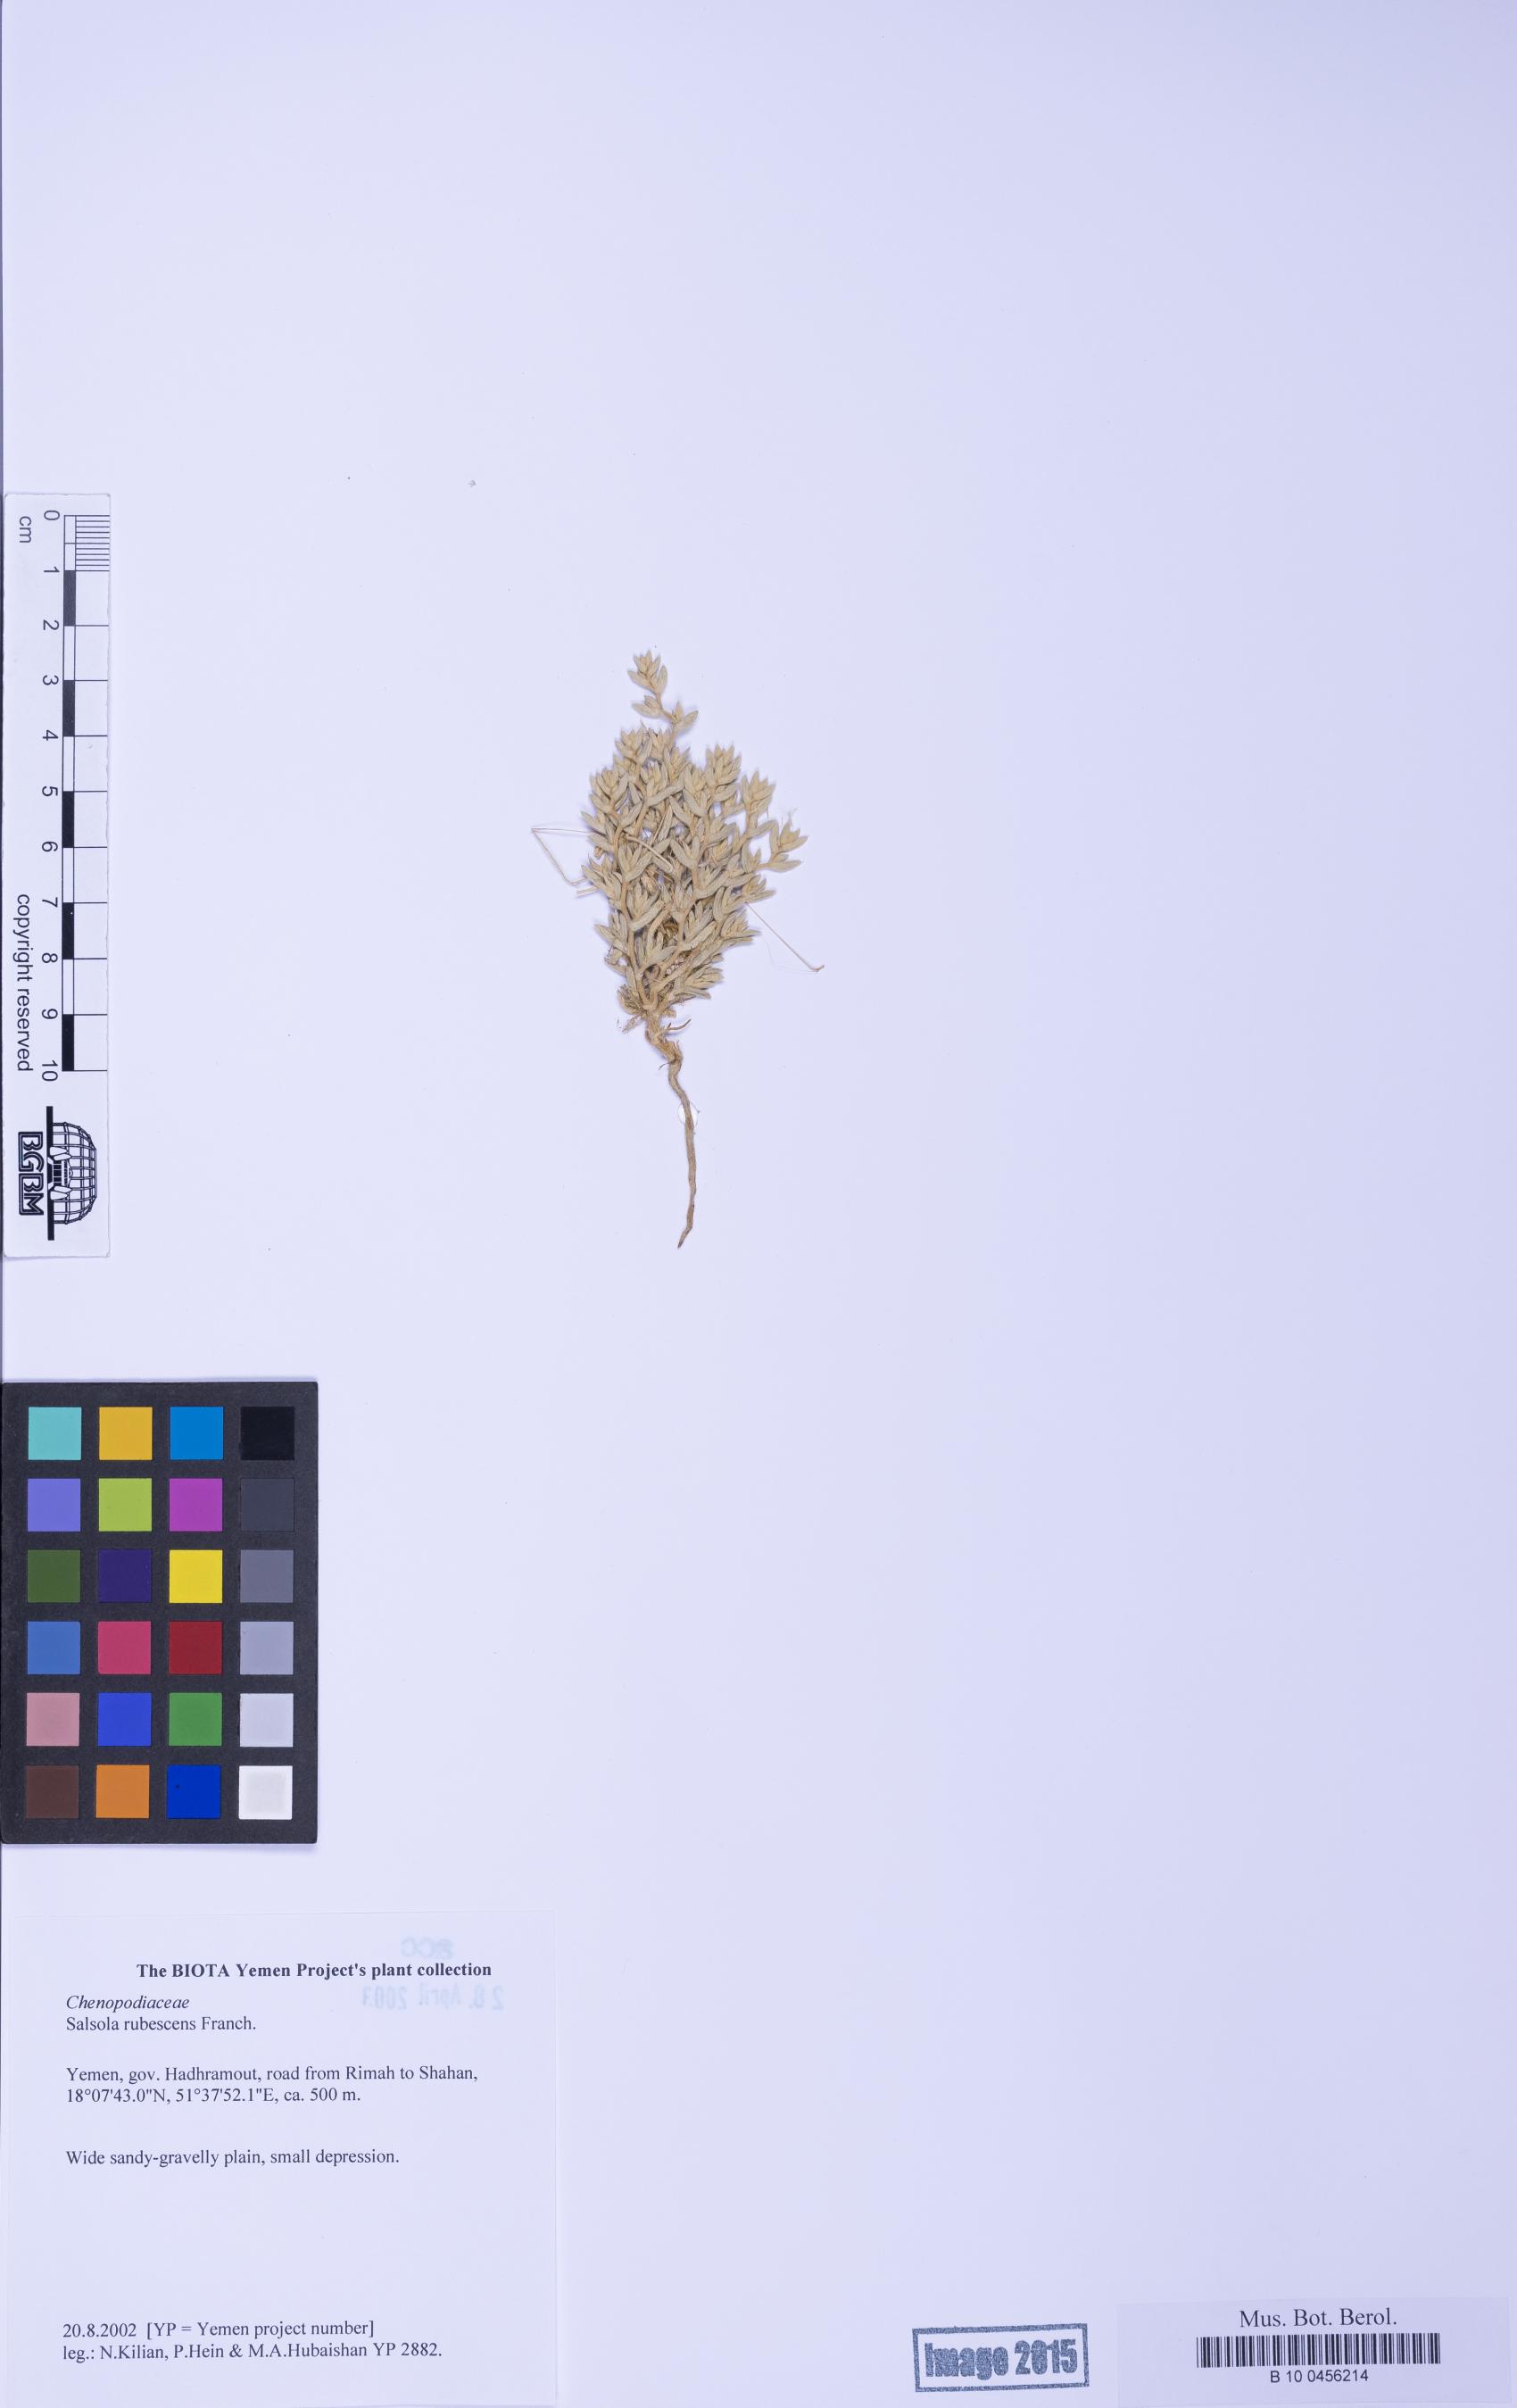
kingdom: Plantae
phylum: Tracheophyta
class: Magnoliopsida
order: Caryophyllales
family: Amaranthaceae
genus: Kaviria
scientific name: Kaviria rubescens
